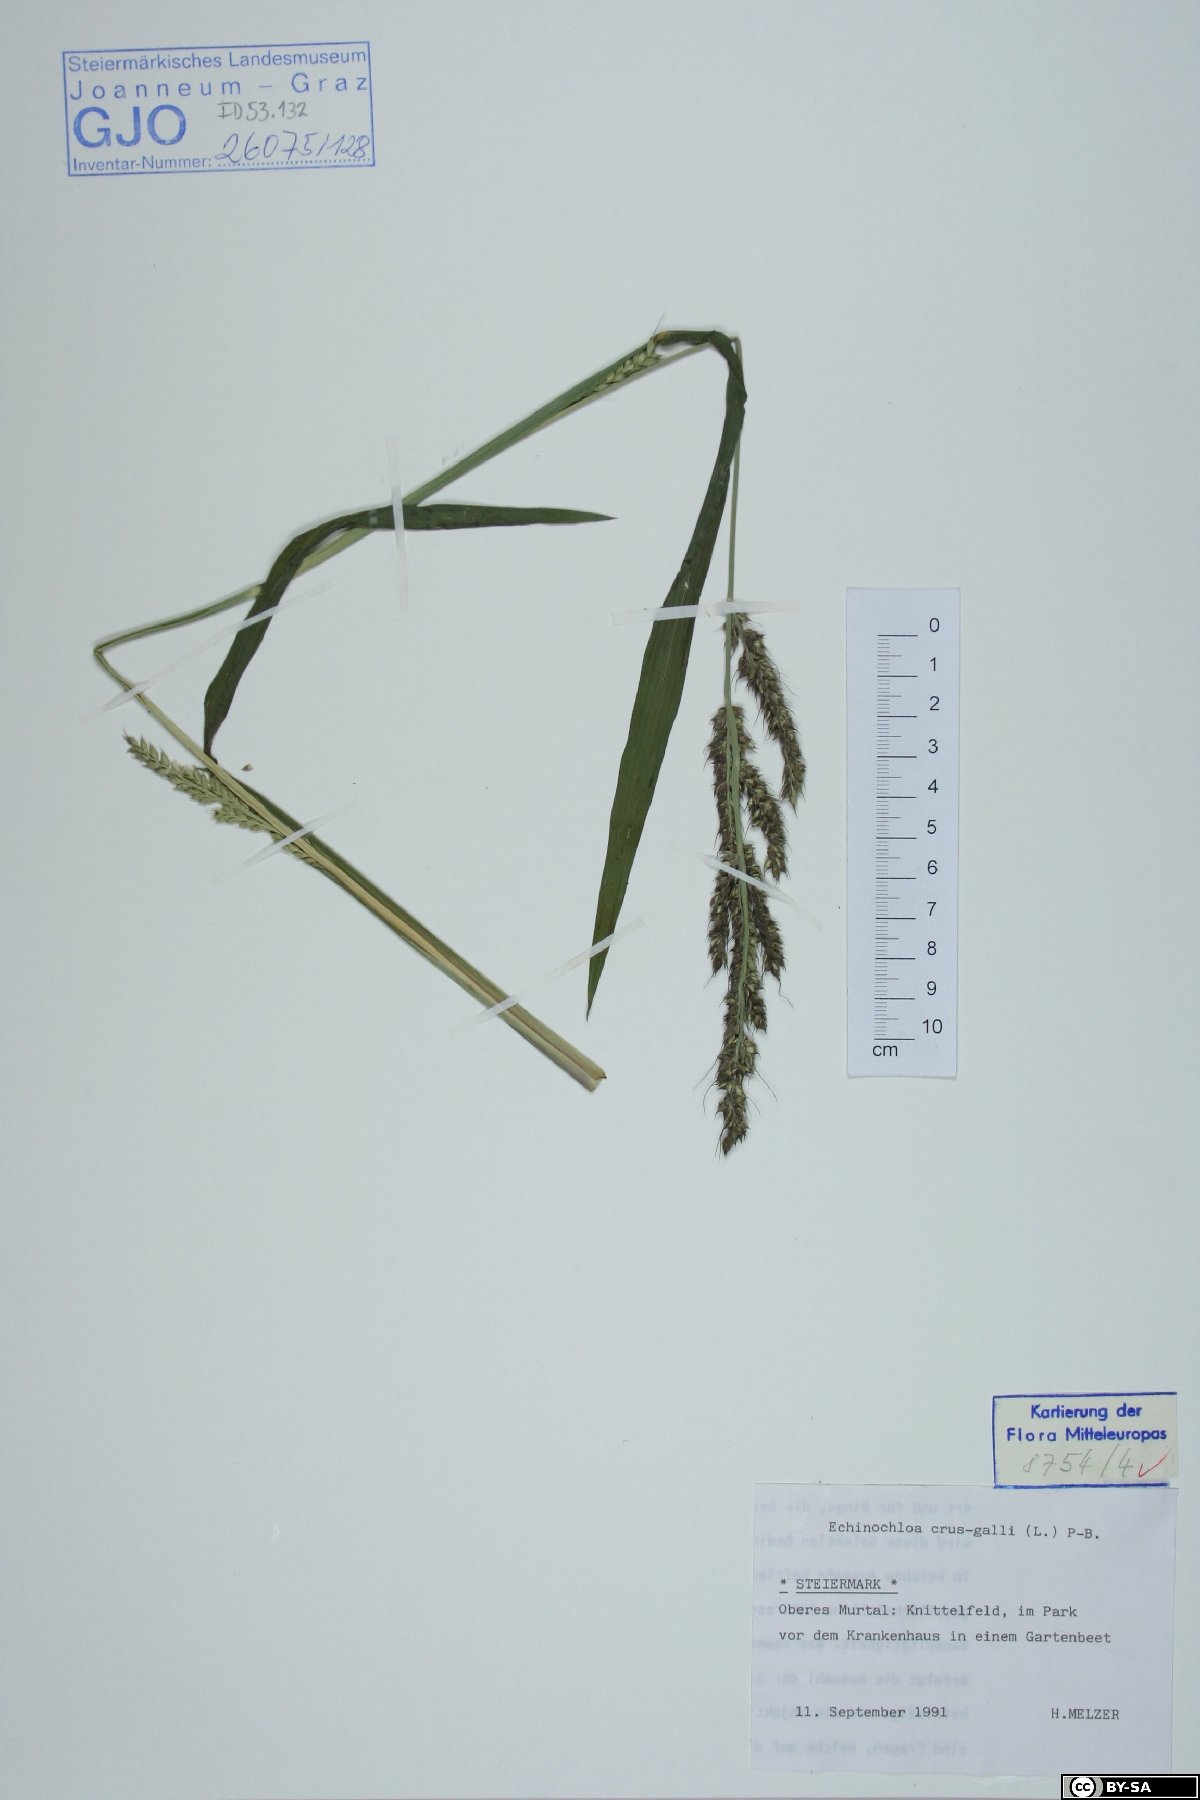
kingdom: Plantae
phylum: Tracheophyta
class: Liliopsida
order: Poales
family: Poaceae
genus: Echinochloa
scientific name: Echinochloa crus-galli
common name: Cockspur
